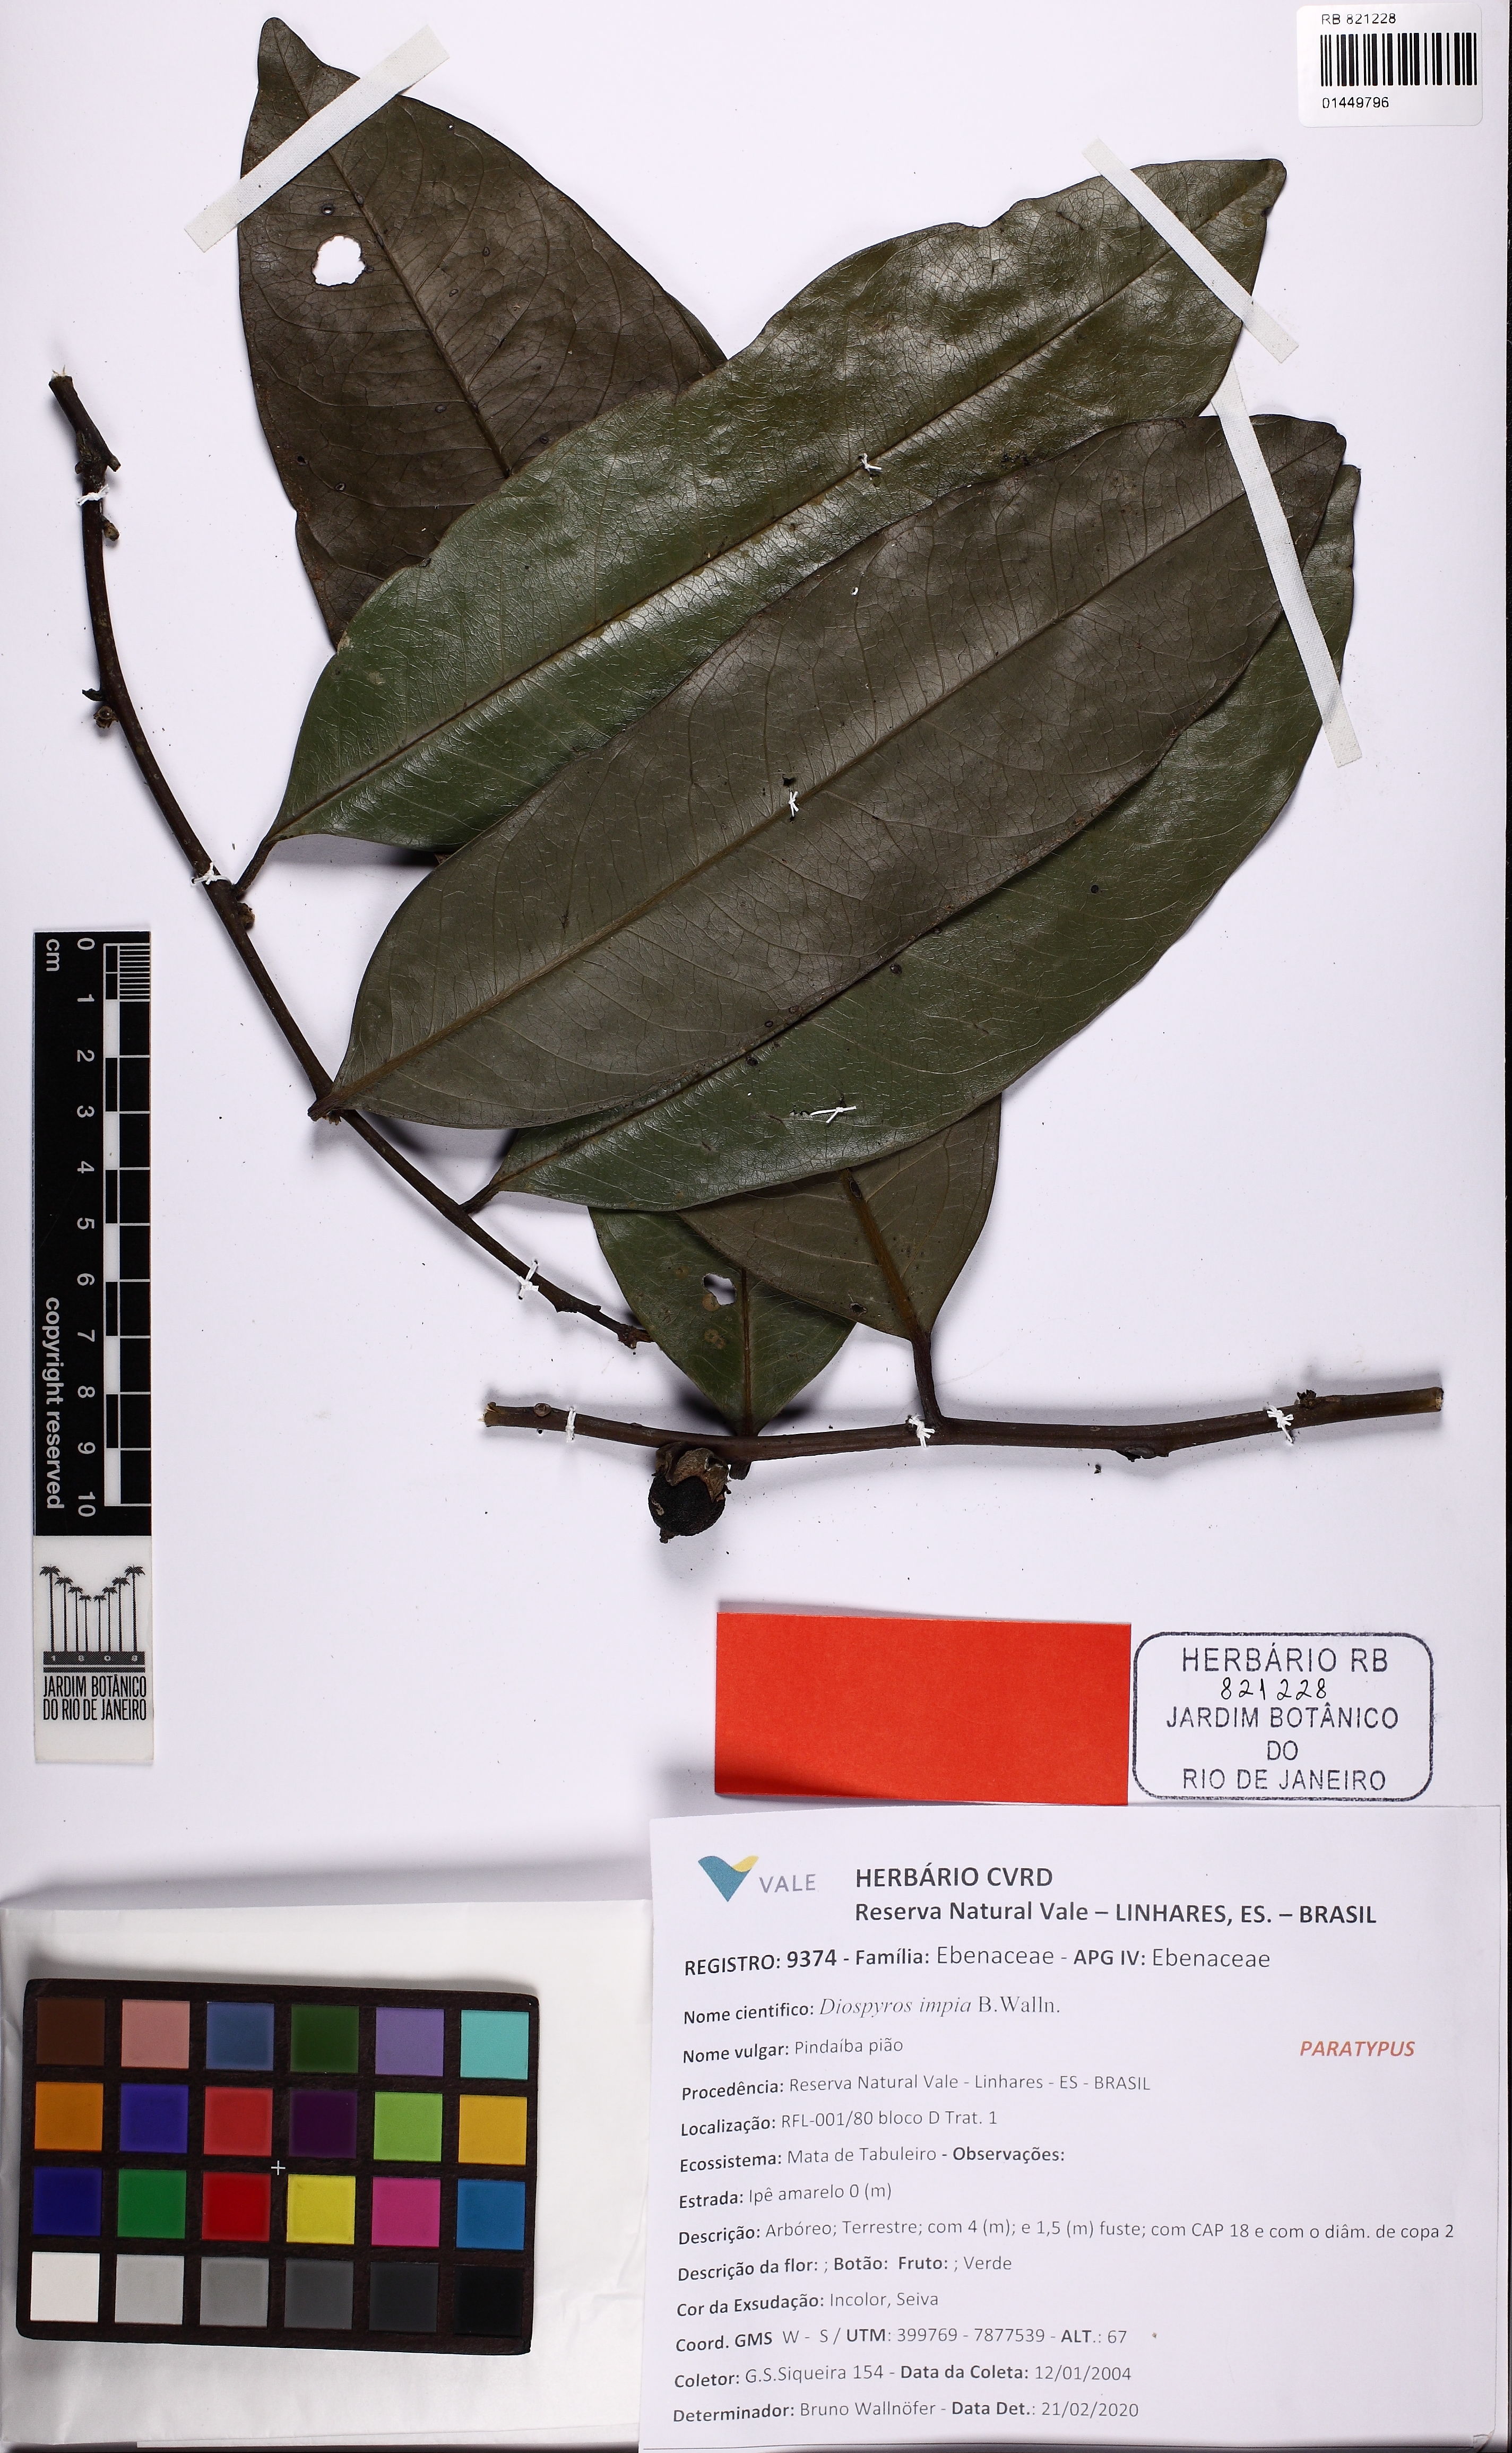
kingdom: Plantae
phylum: Tracheophyta
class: Magnoliopsida
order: Ericales
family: Ebenaceae
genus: Diospyros
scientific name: Diospyros impia
